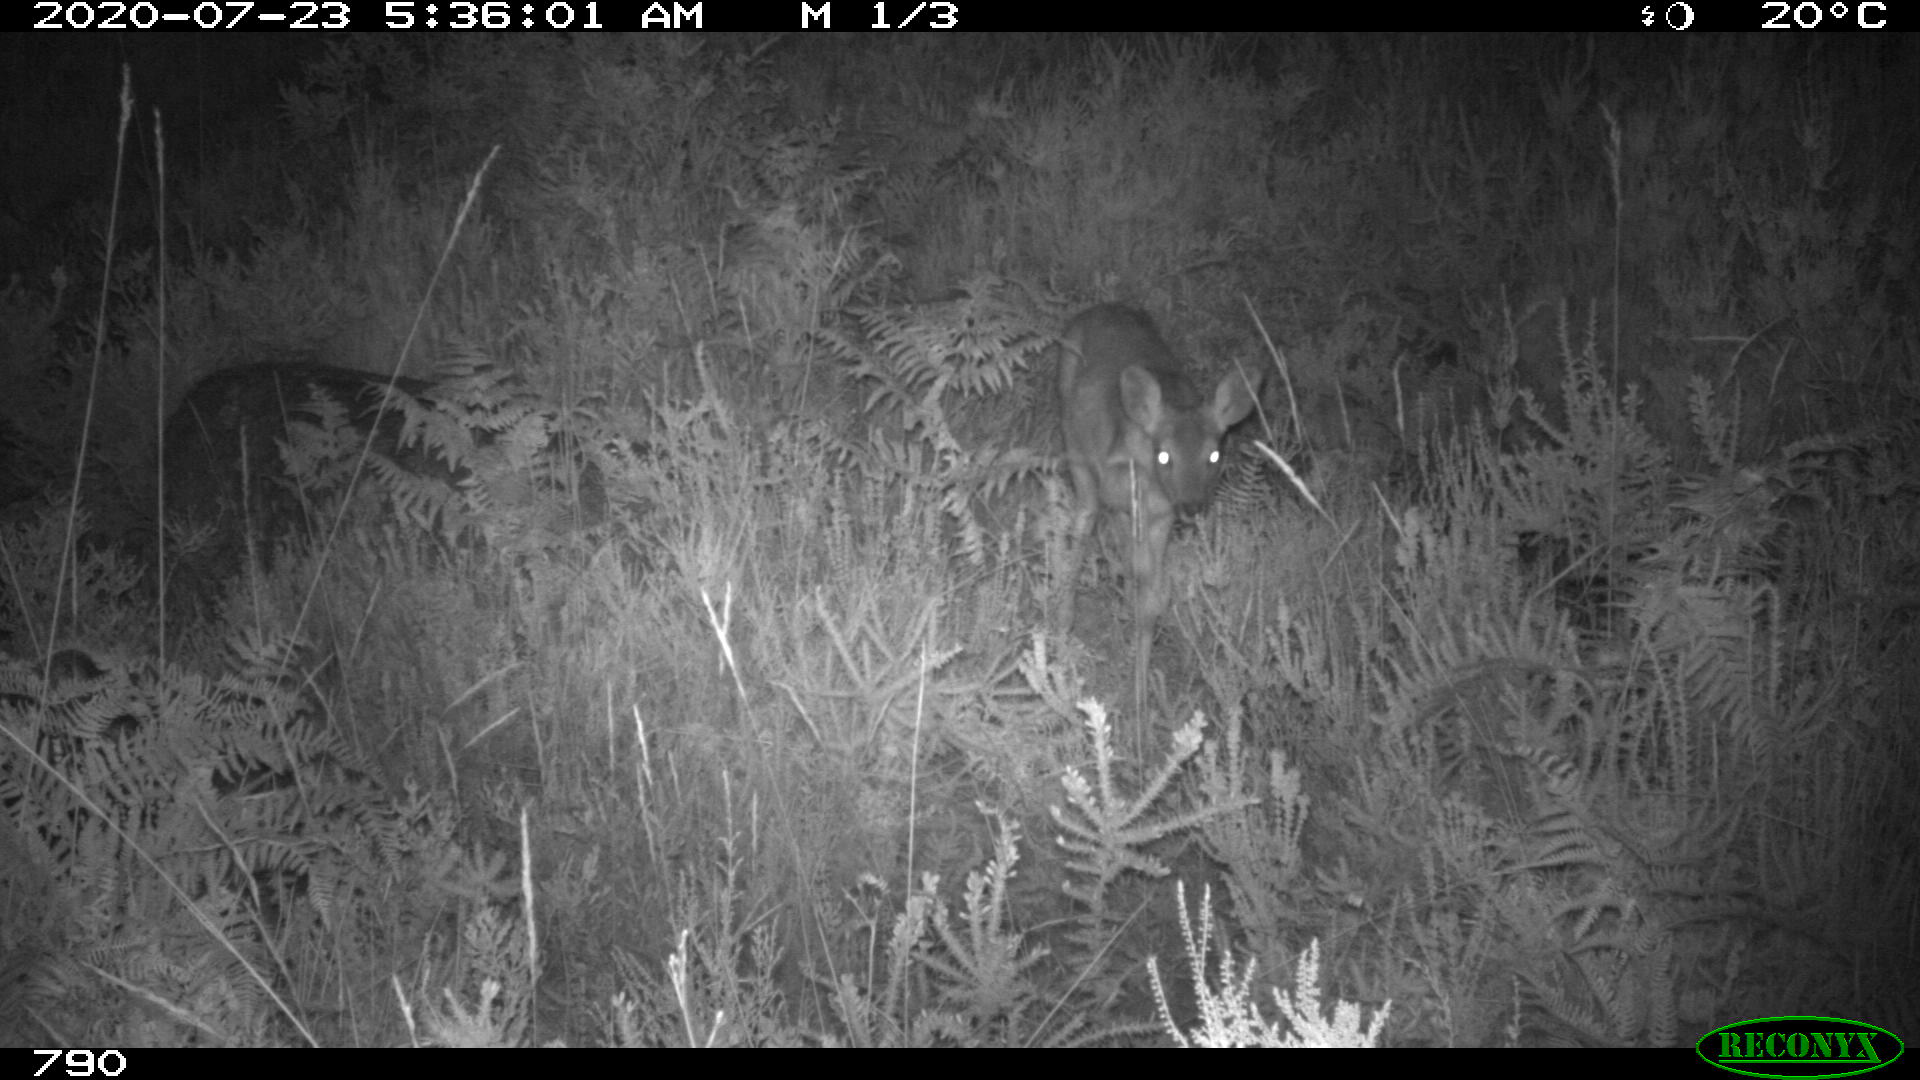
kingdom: Animalia
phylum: Chordata
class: Mammalia
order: Artiodactyla
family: Cervidae
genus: Capreolus
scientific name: Capreolus capreolus
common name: Western roe deer
